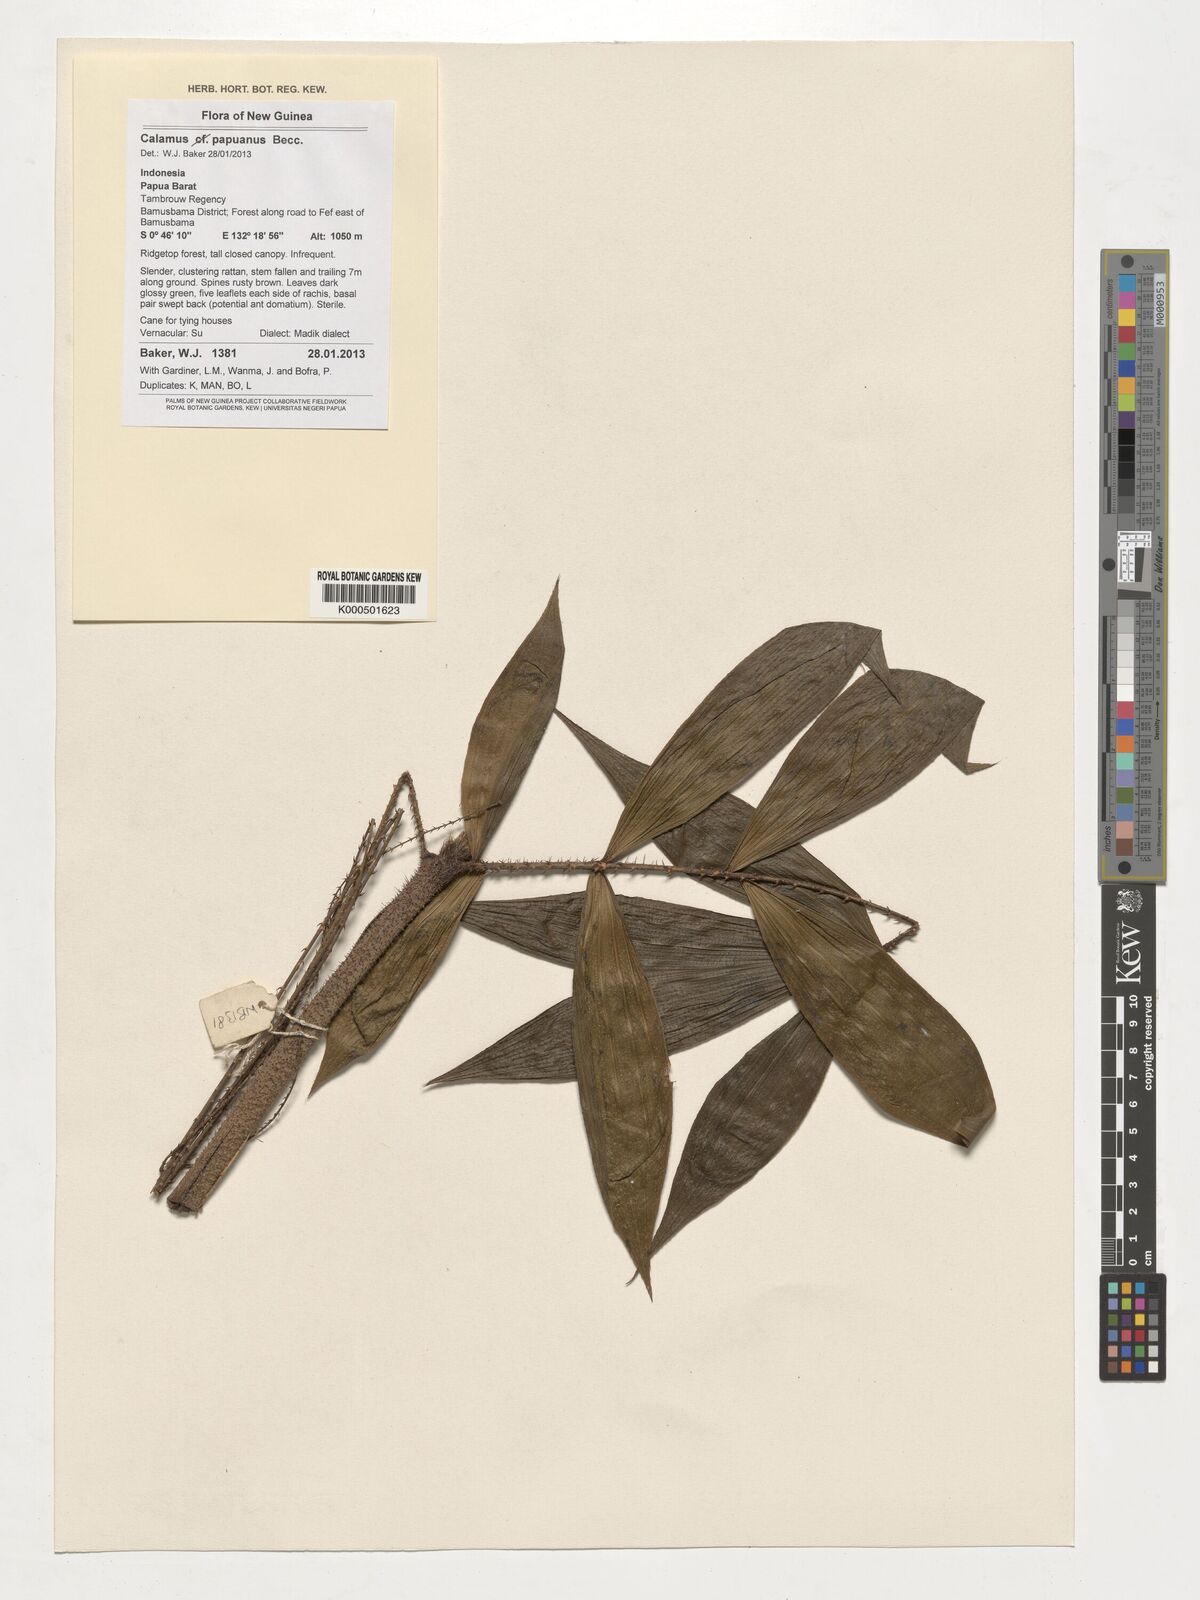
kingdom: Plantae
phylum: Tracheophyta
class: Liliopsida
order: Arecales
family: Arecaceae
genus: Calamus
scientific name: Calamus papuanus
